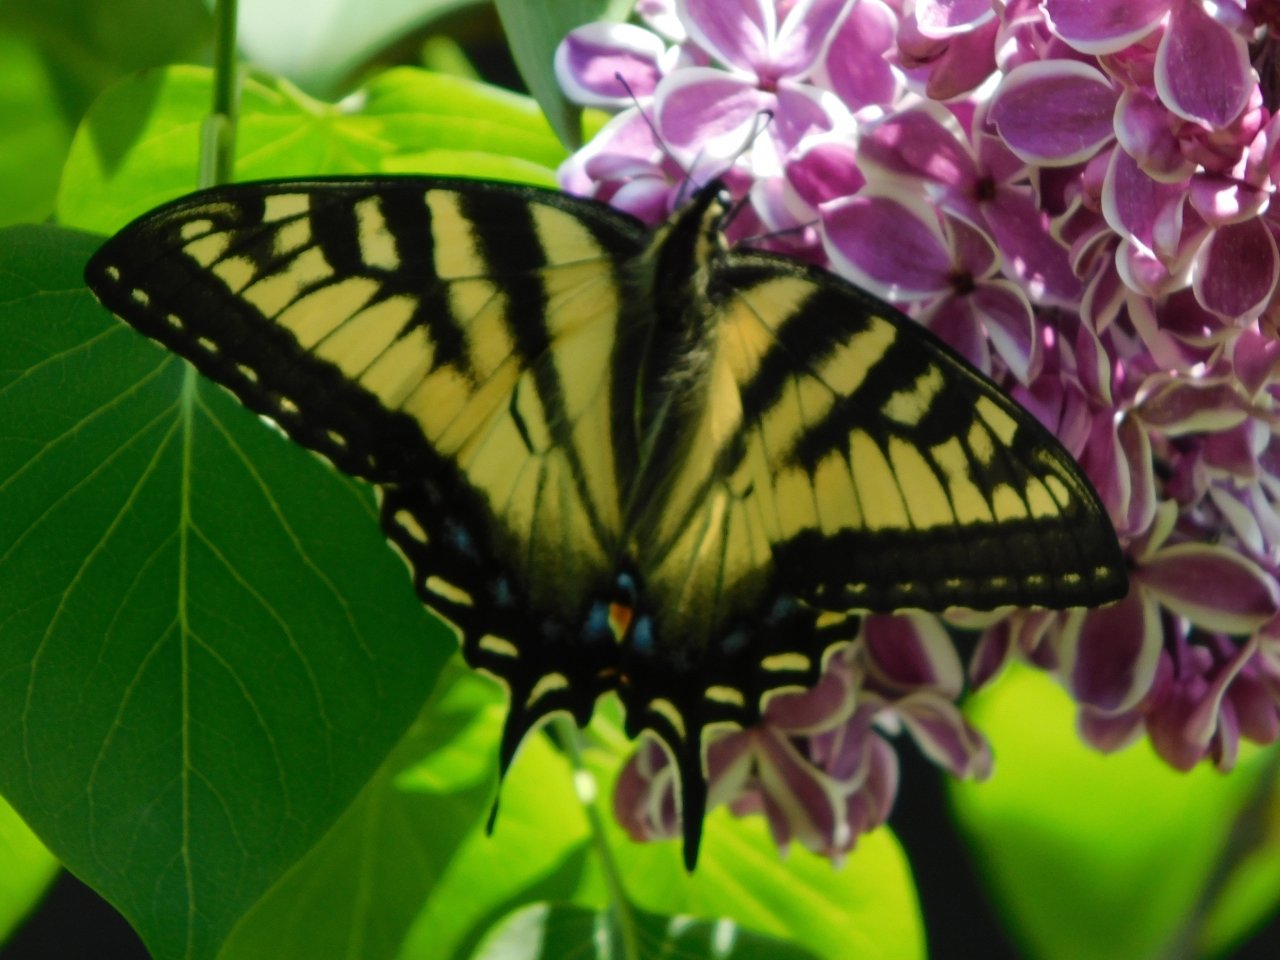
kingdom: Animalia
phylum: Arthropoda
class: Insecta
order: Lepidoptera
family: Papilionidae
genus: Pterourus
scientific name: Pterourus
